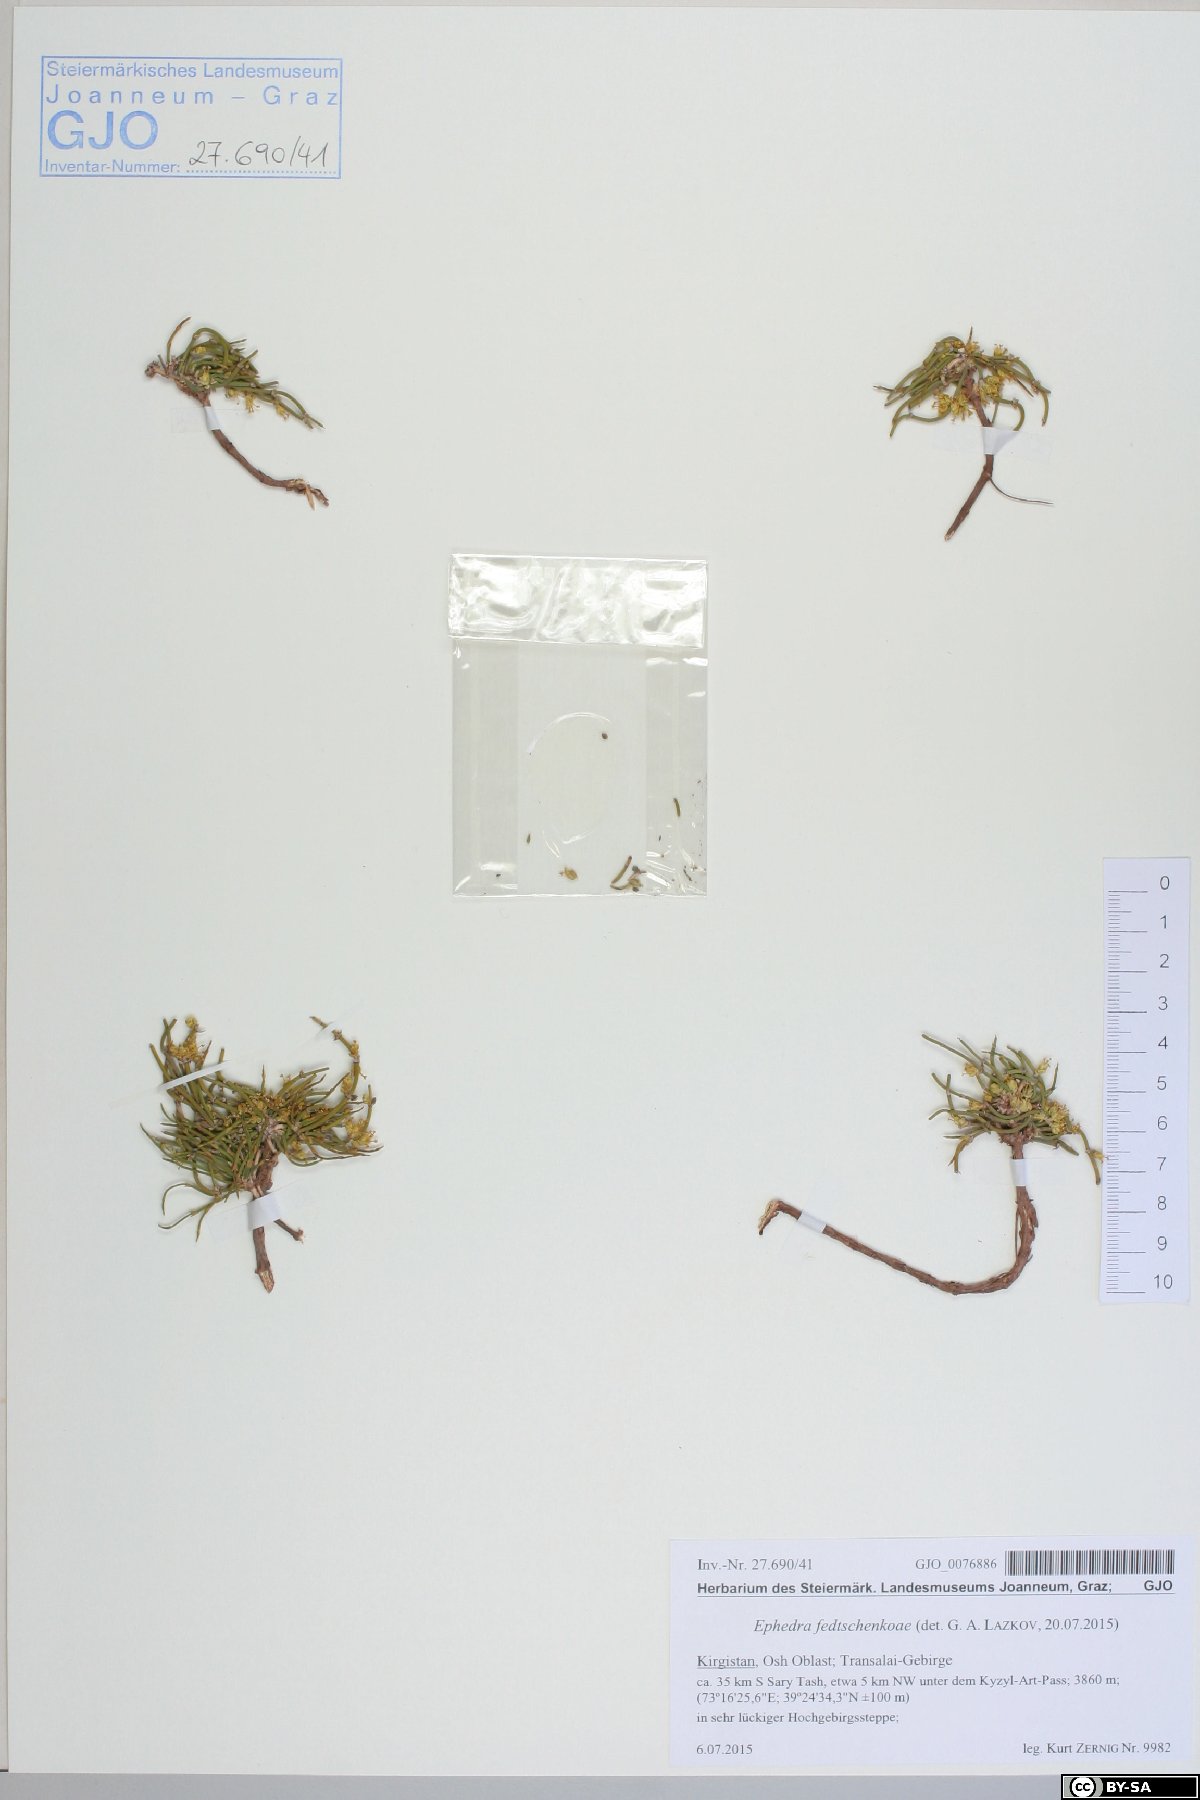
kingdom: Plantae
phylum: Tracheophyta
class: Gnetopsida
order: Ephedrales
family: Ephedraceae
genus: Ephedra
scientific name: Ephedra fedtschenkoae
